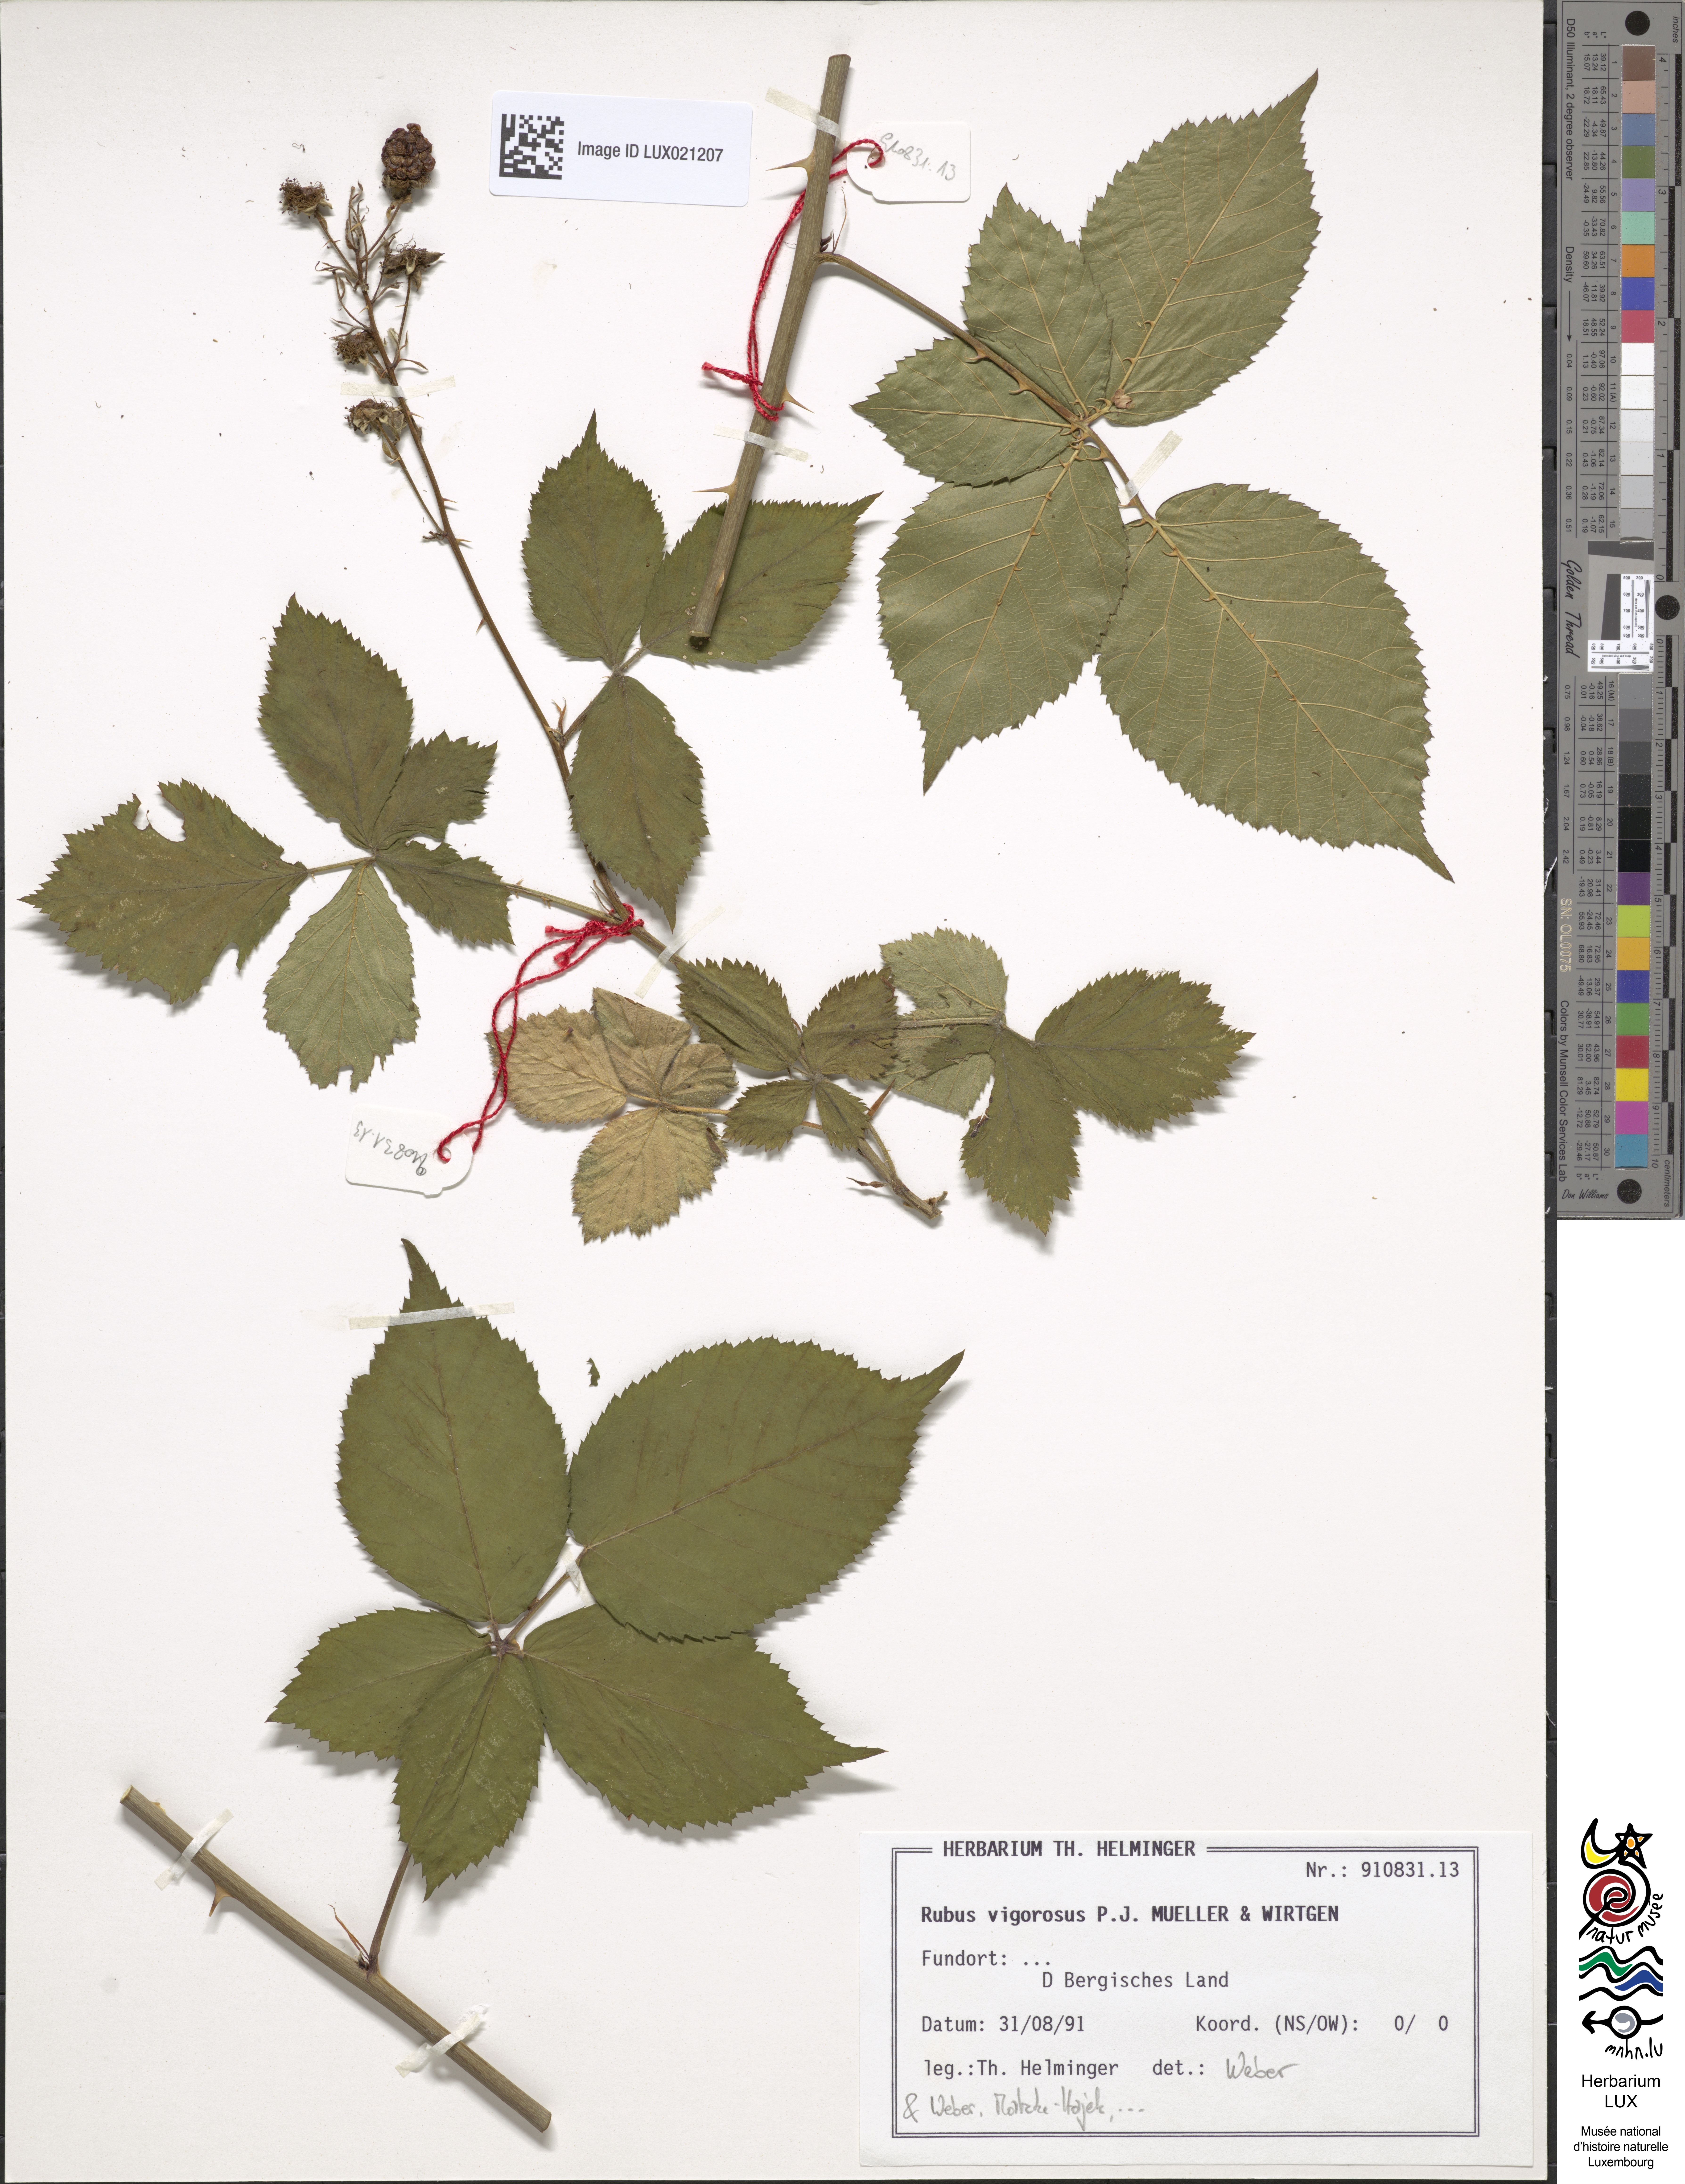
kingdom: Plantae
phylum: Tracheophyta
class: Magnoliopsida
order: Rosales
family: Rosaceae
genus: Rubus
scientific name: Rubus affinis
